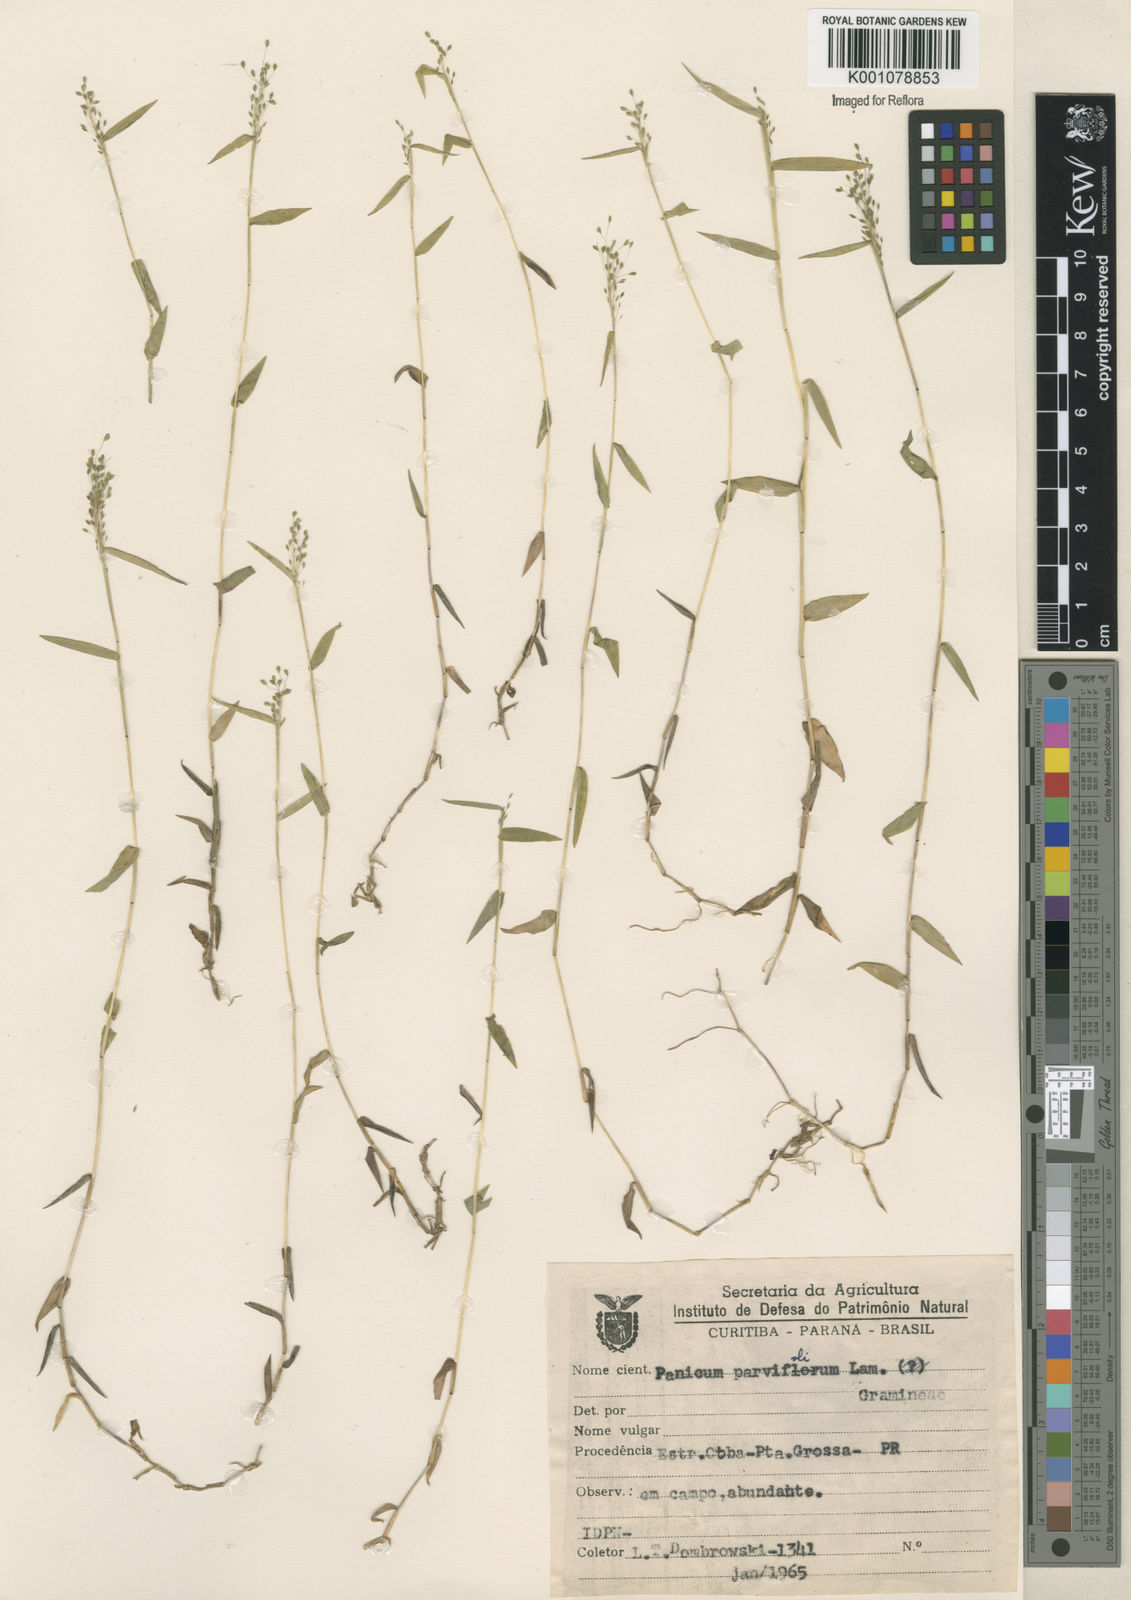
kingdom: Plantae
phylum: Tracheophyta
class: Liliopsida
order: Poales
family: Poaceae
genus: Trichanthecium
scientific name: Trichanthecium parvifolium
